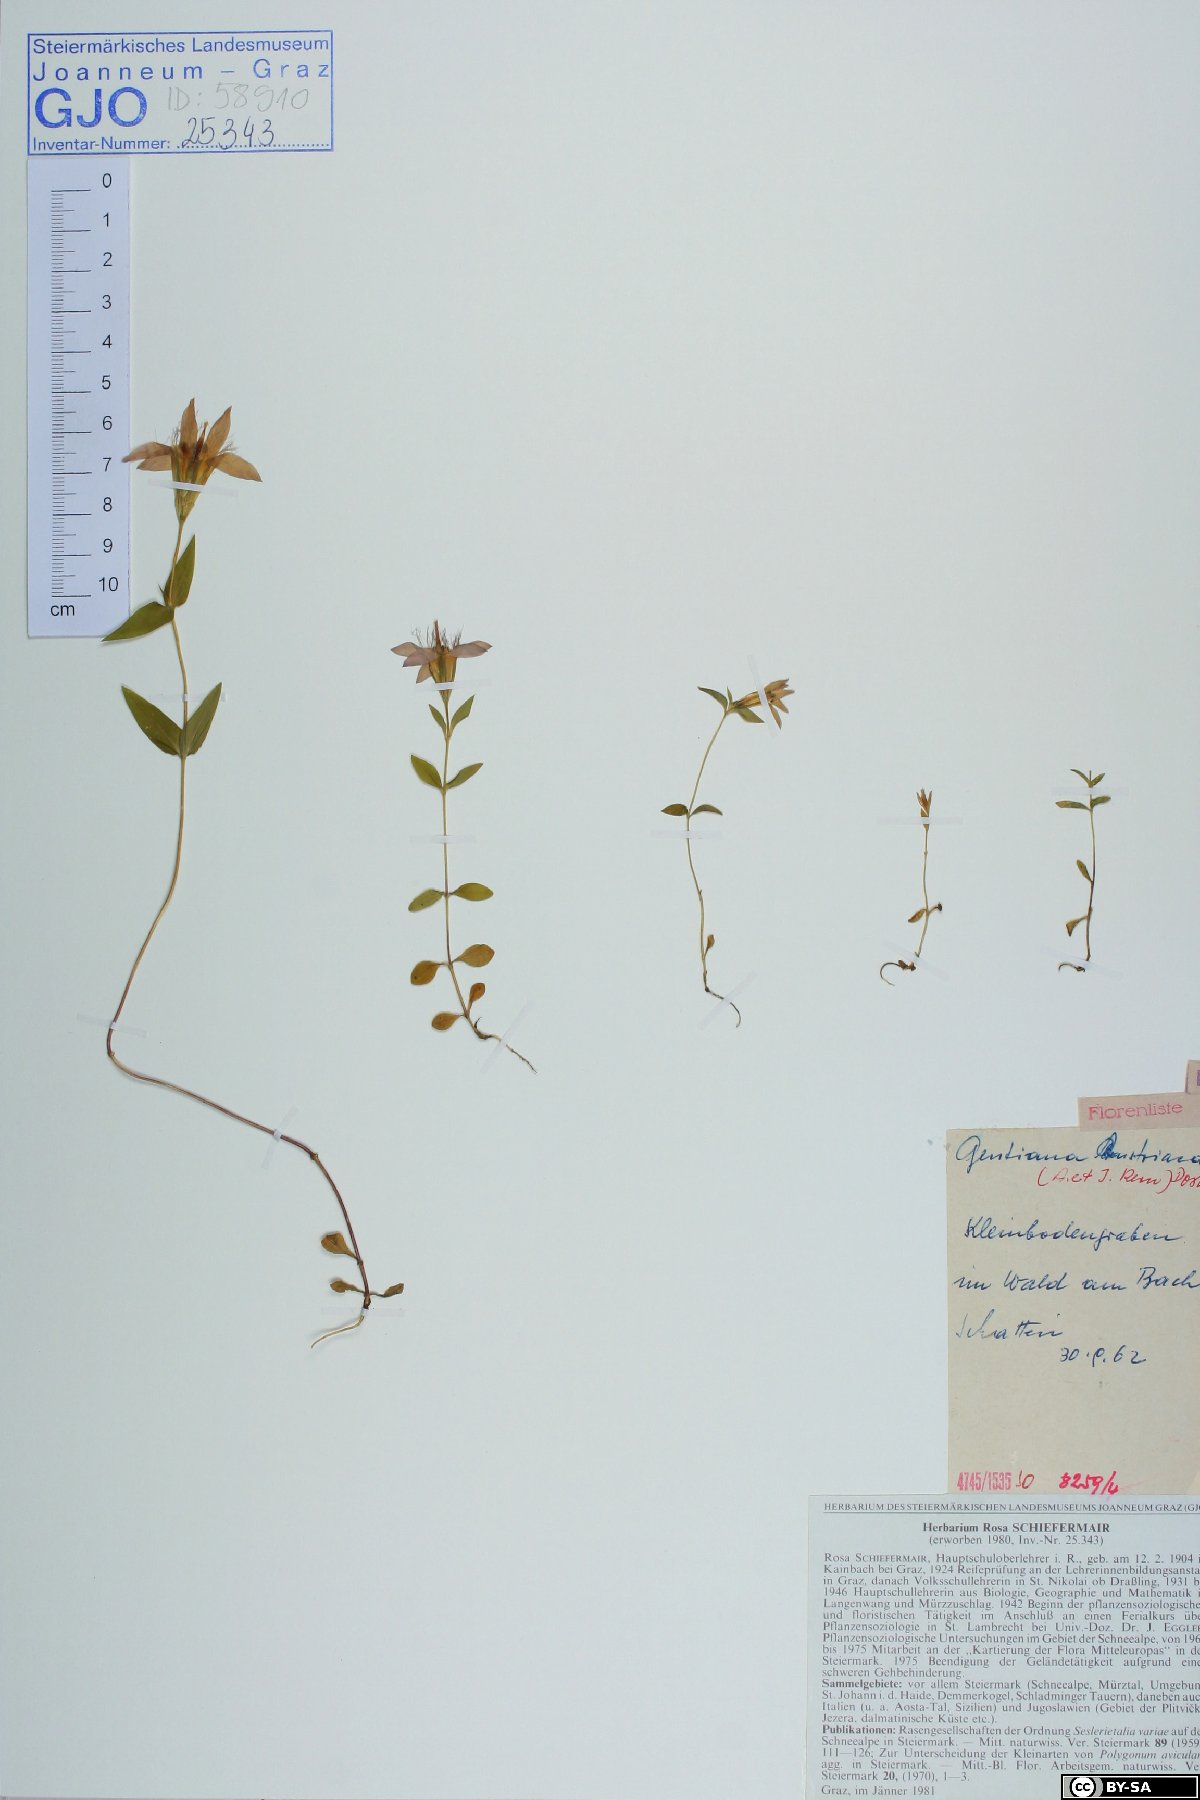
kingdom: Plantae
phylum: Tracheophyta
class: Magnoliopsida
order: Gentianales
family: Gentianaceae
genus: Gentianella
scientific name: Gentianella austriaca
